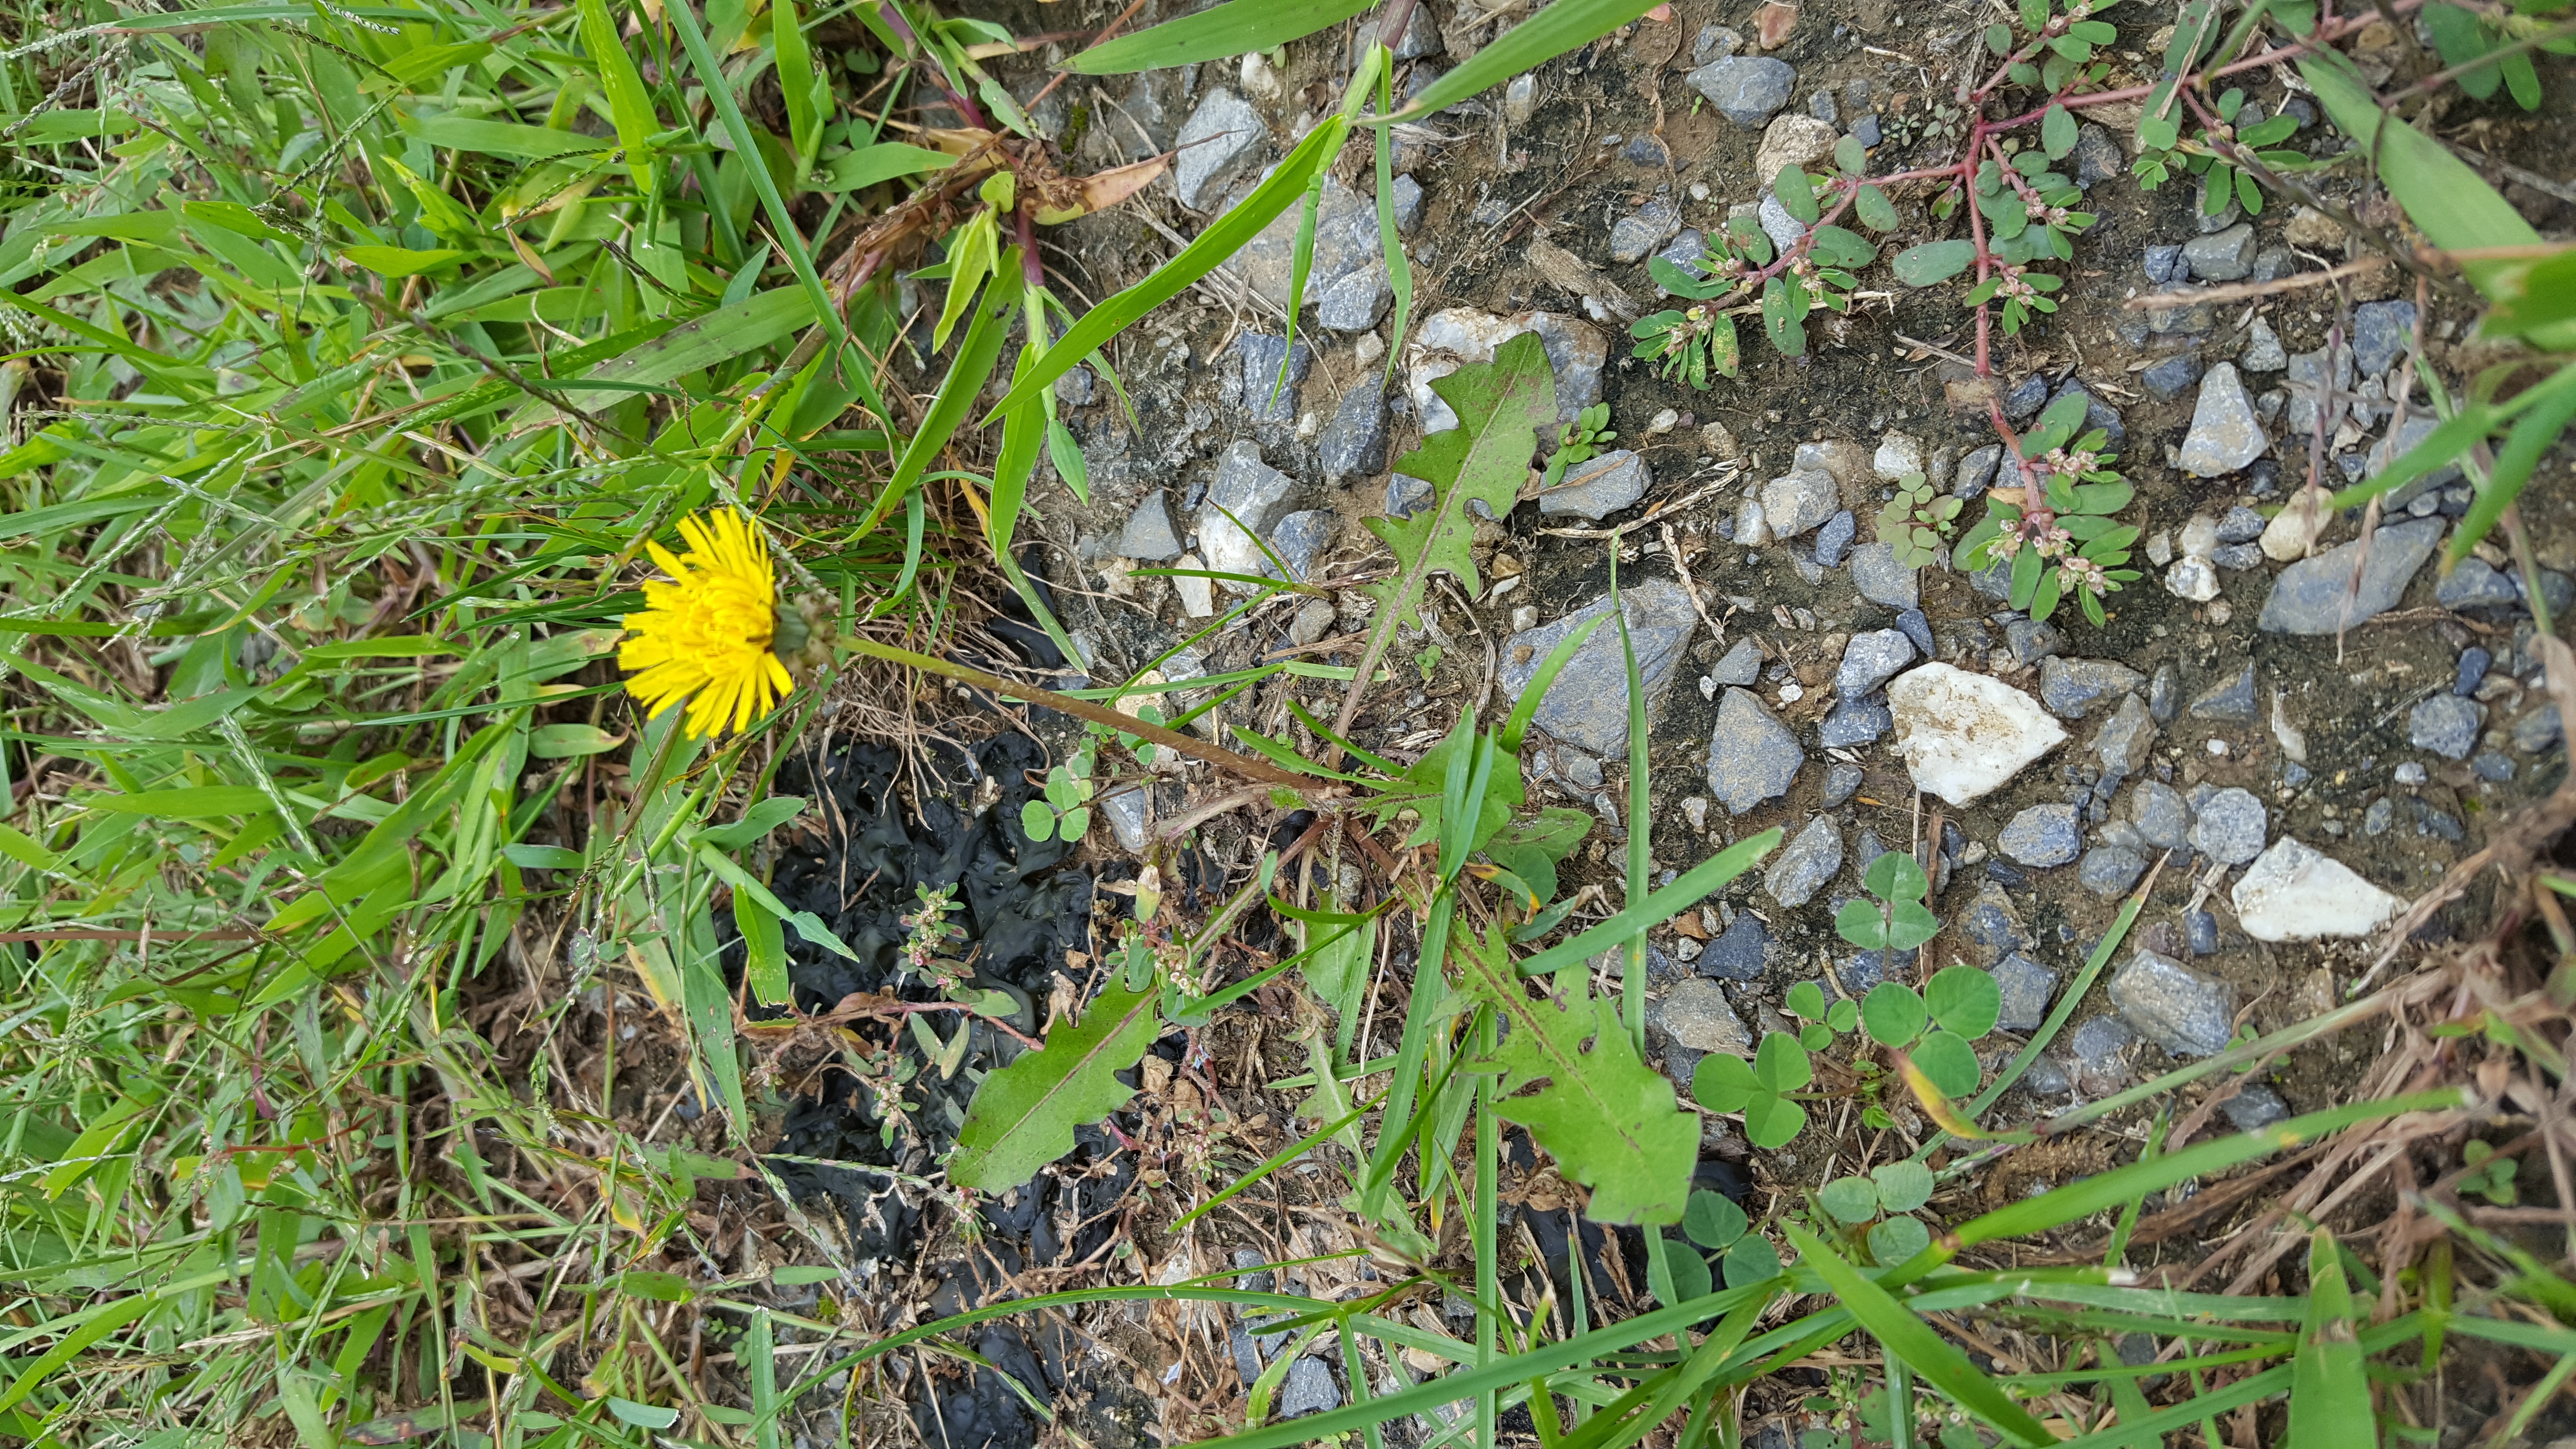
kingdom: Plantae
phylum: Tracheophyta
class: Magnoliopsida
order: Asterales
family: Asteraceae
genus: Taraxacum
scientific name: Taraxacum officinale
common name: Common Dandelion
